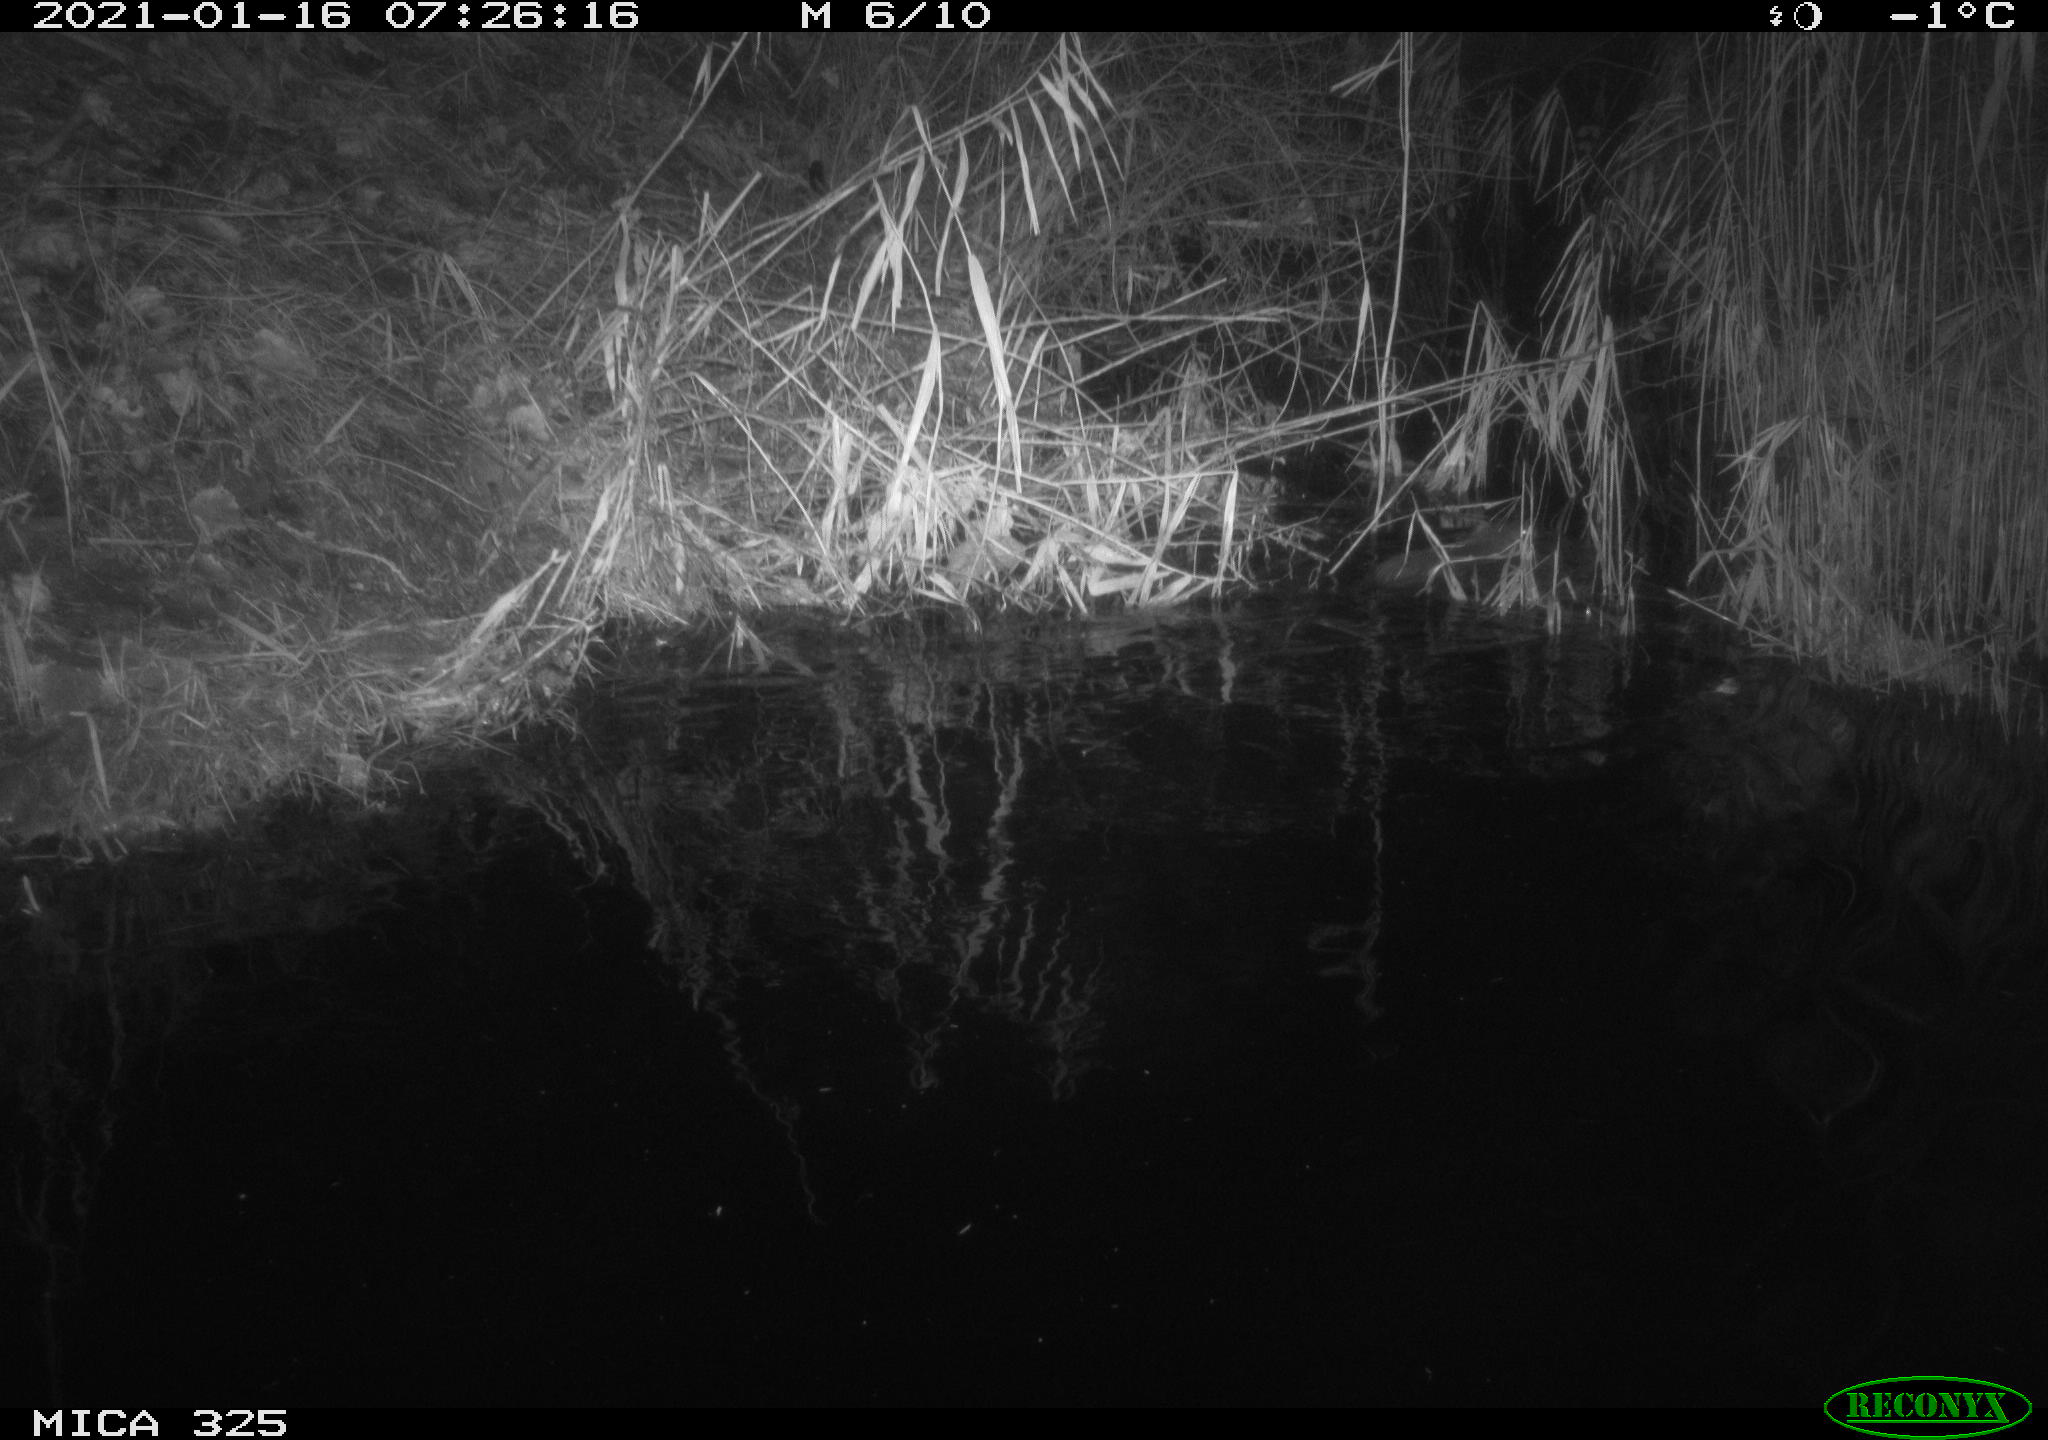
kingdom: Animalia
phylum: Chordata
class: Mammalia
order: Rodentia
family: Myocastoridae
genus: Myocastor
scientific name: Myocastor coypus
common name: Coypu
